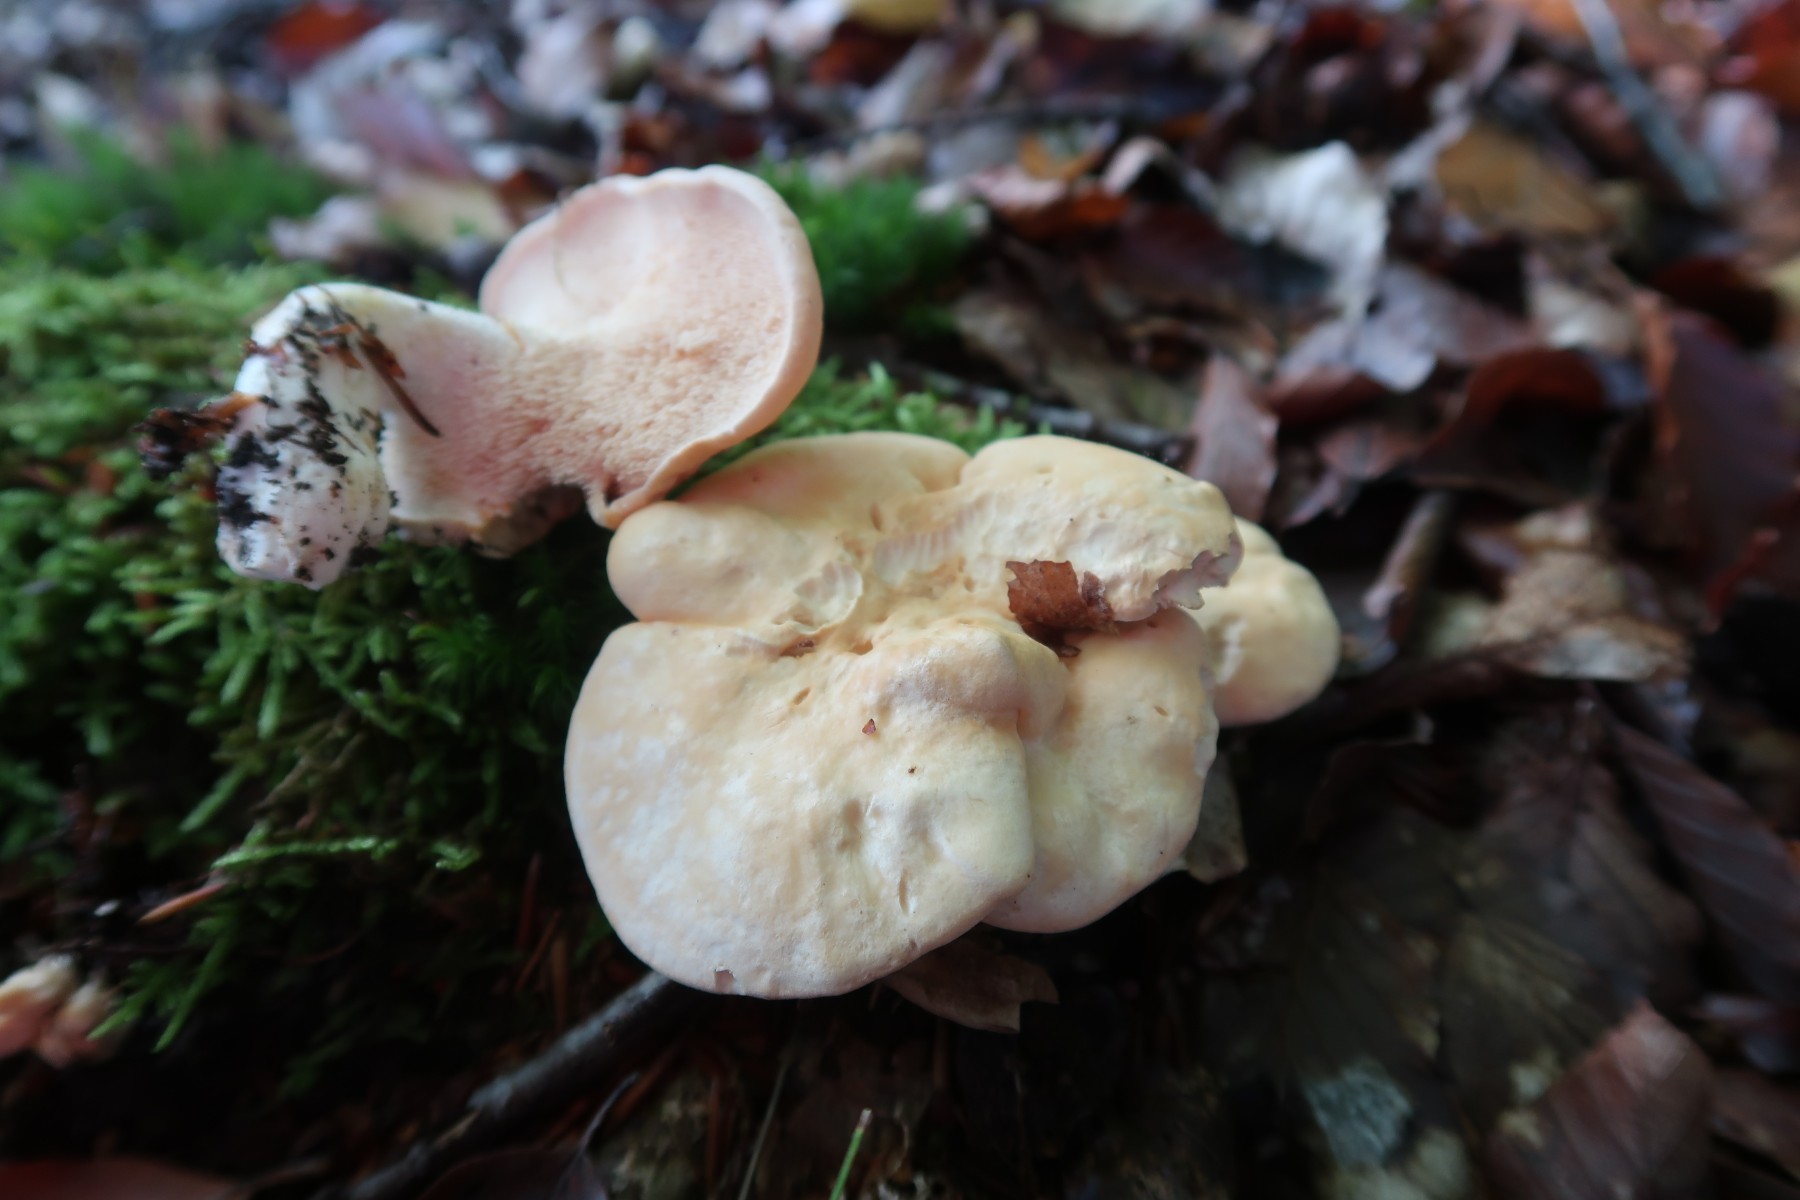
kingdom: Fungi
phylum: Basidiomycota
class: Agaricomycetes
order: Cantharellales
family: Hydnaceae
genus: Hydnum
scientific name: Hydnum repandum
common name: almindelig pigsvamp
